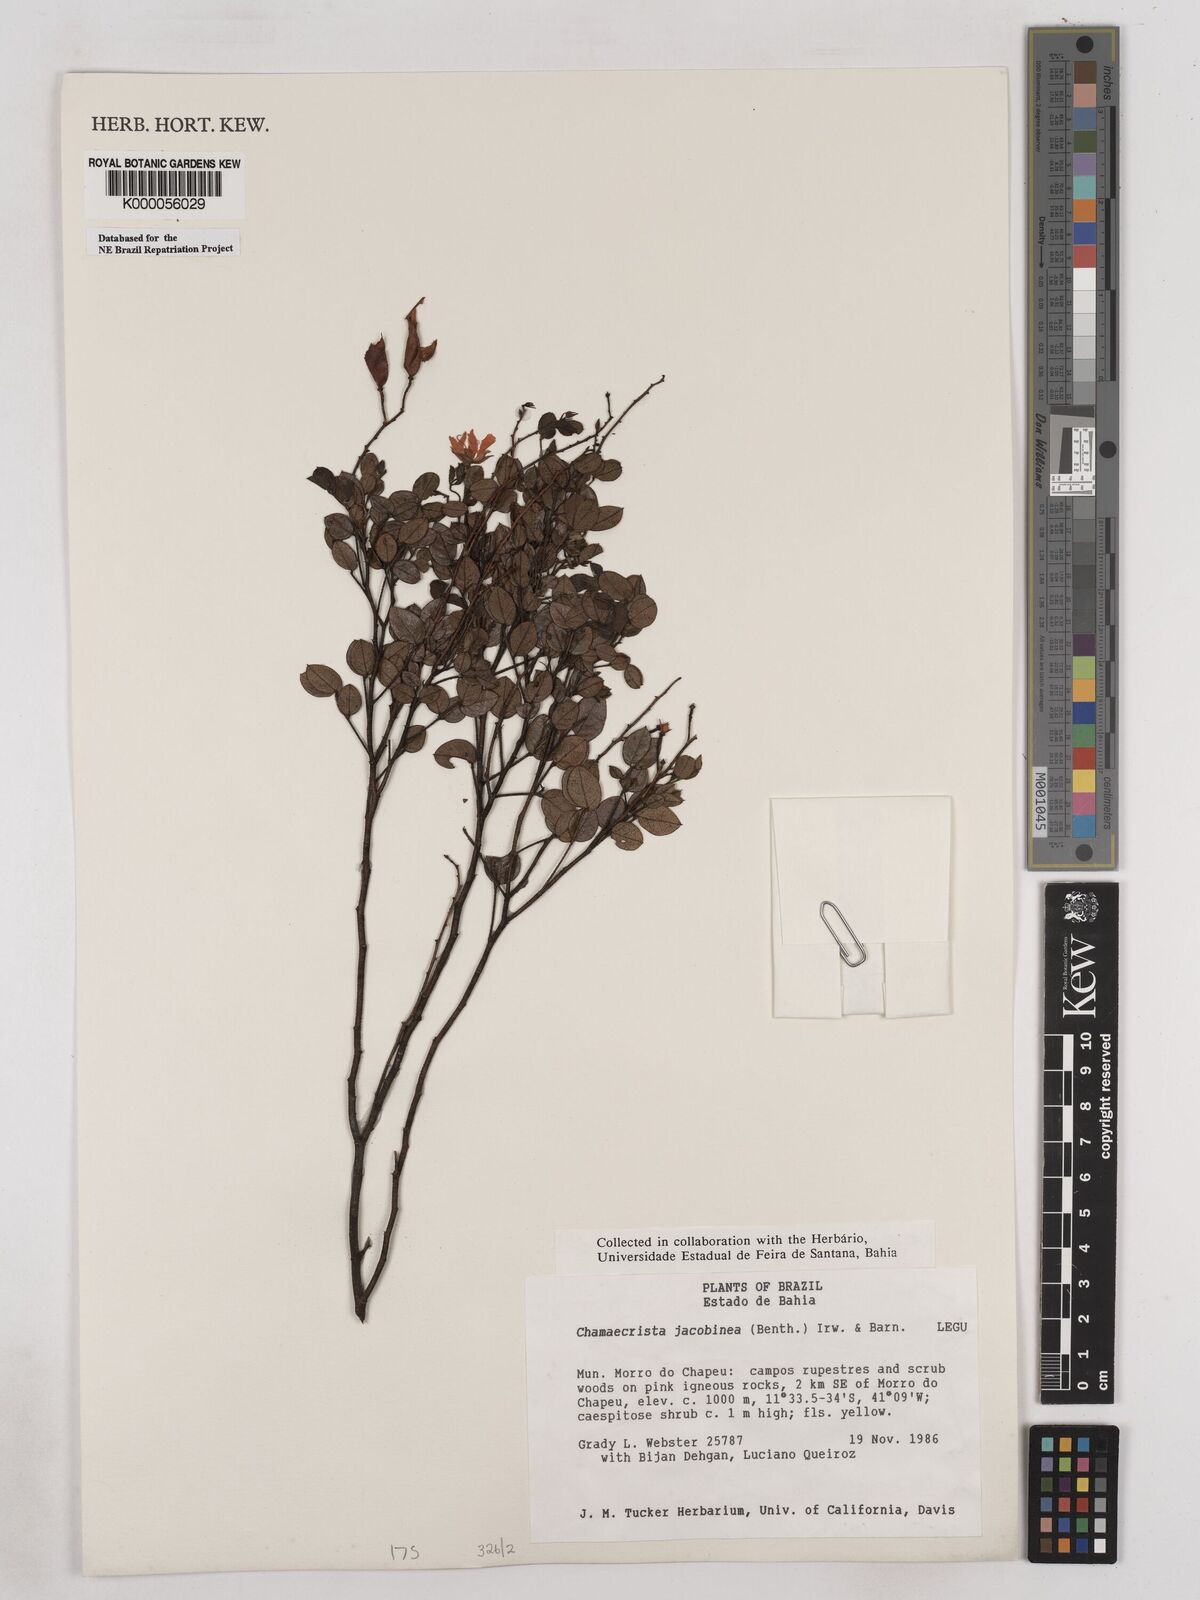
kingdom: Plantae
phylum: Tracheophyta
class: Magnoliopsida
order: Fabales
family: Fabaceae
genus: Chamaecrista
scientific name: Chamaecrista jacobinea
